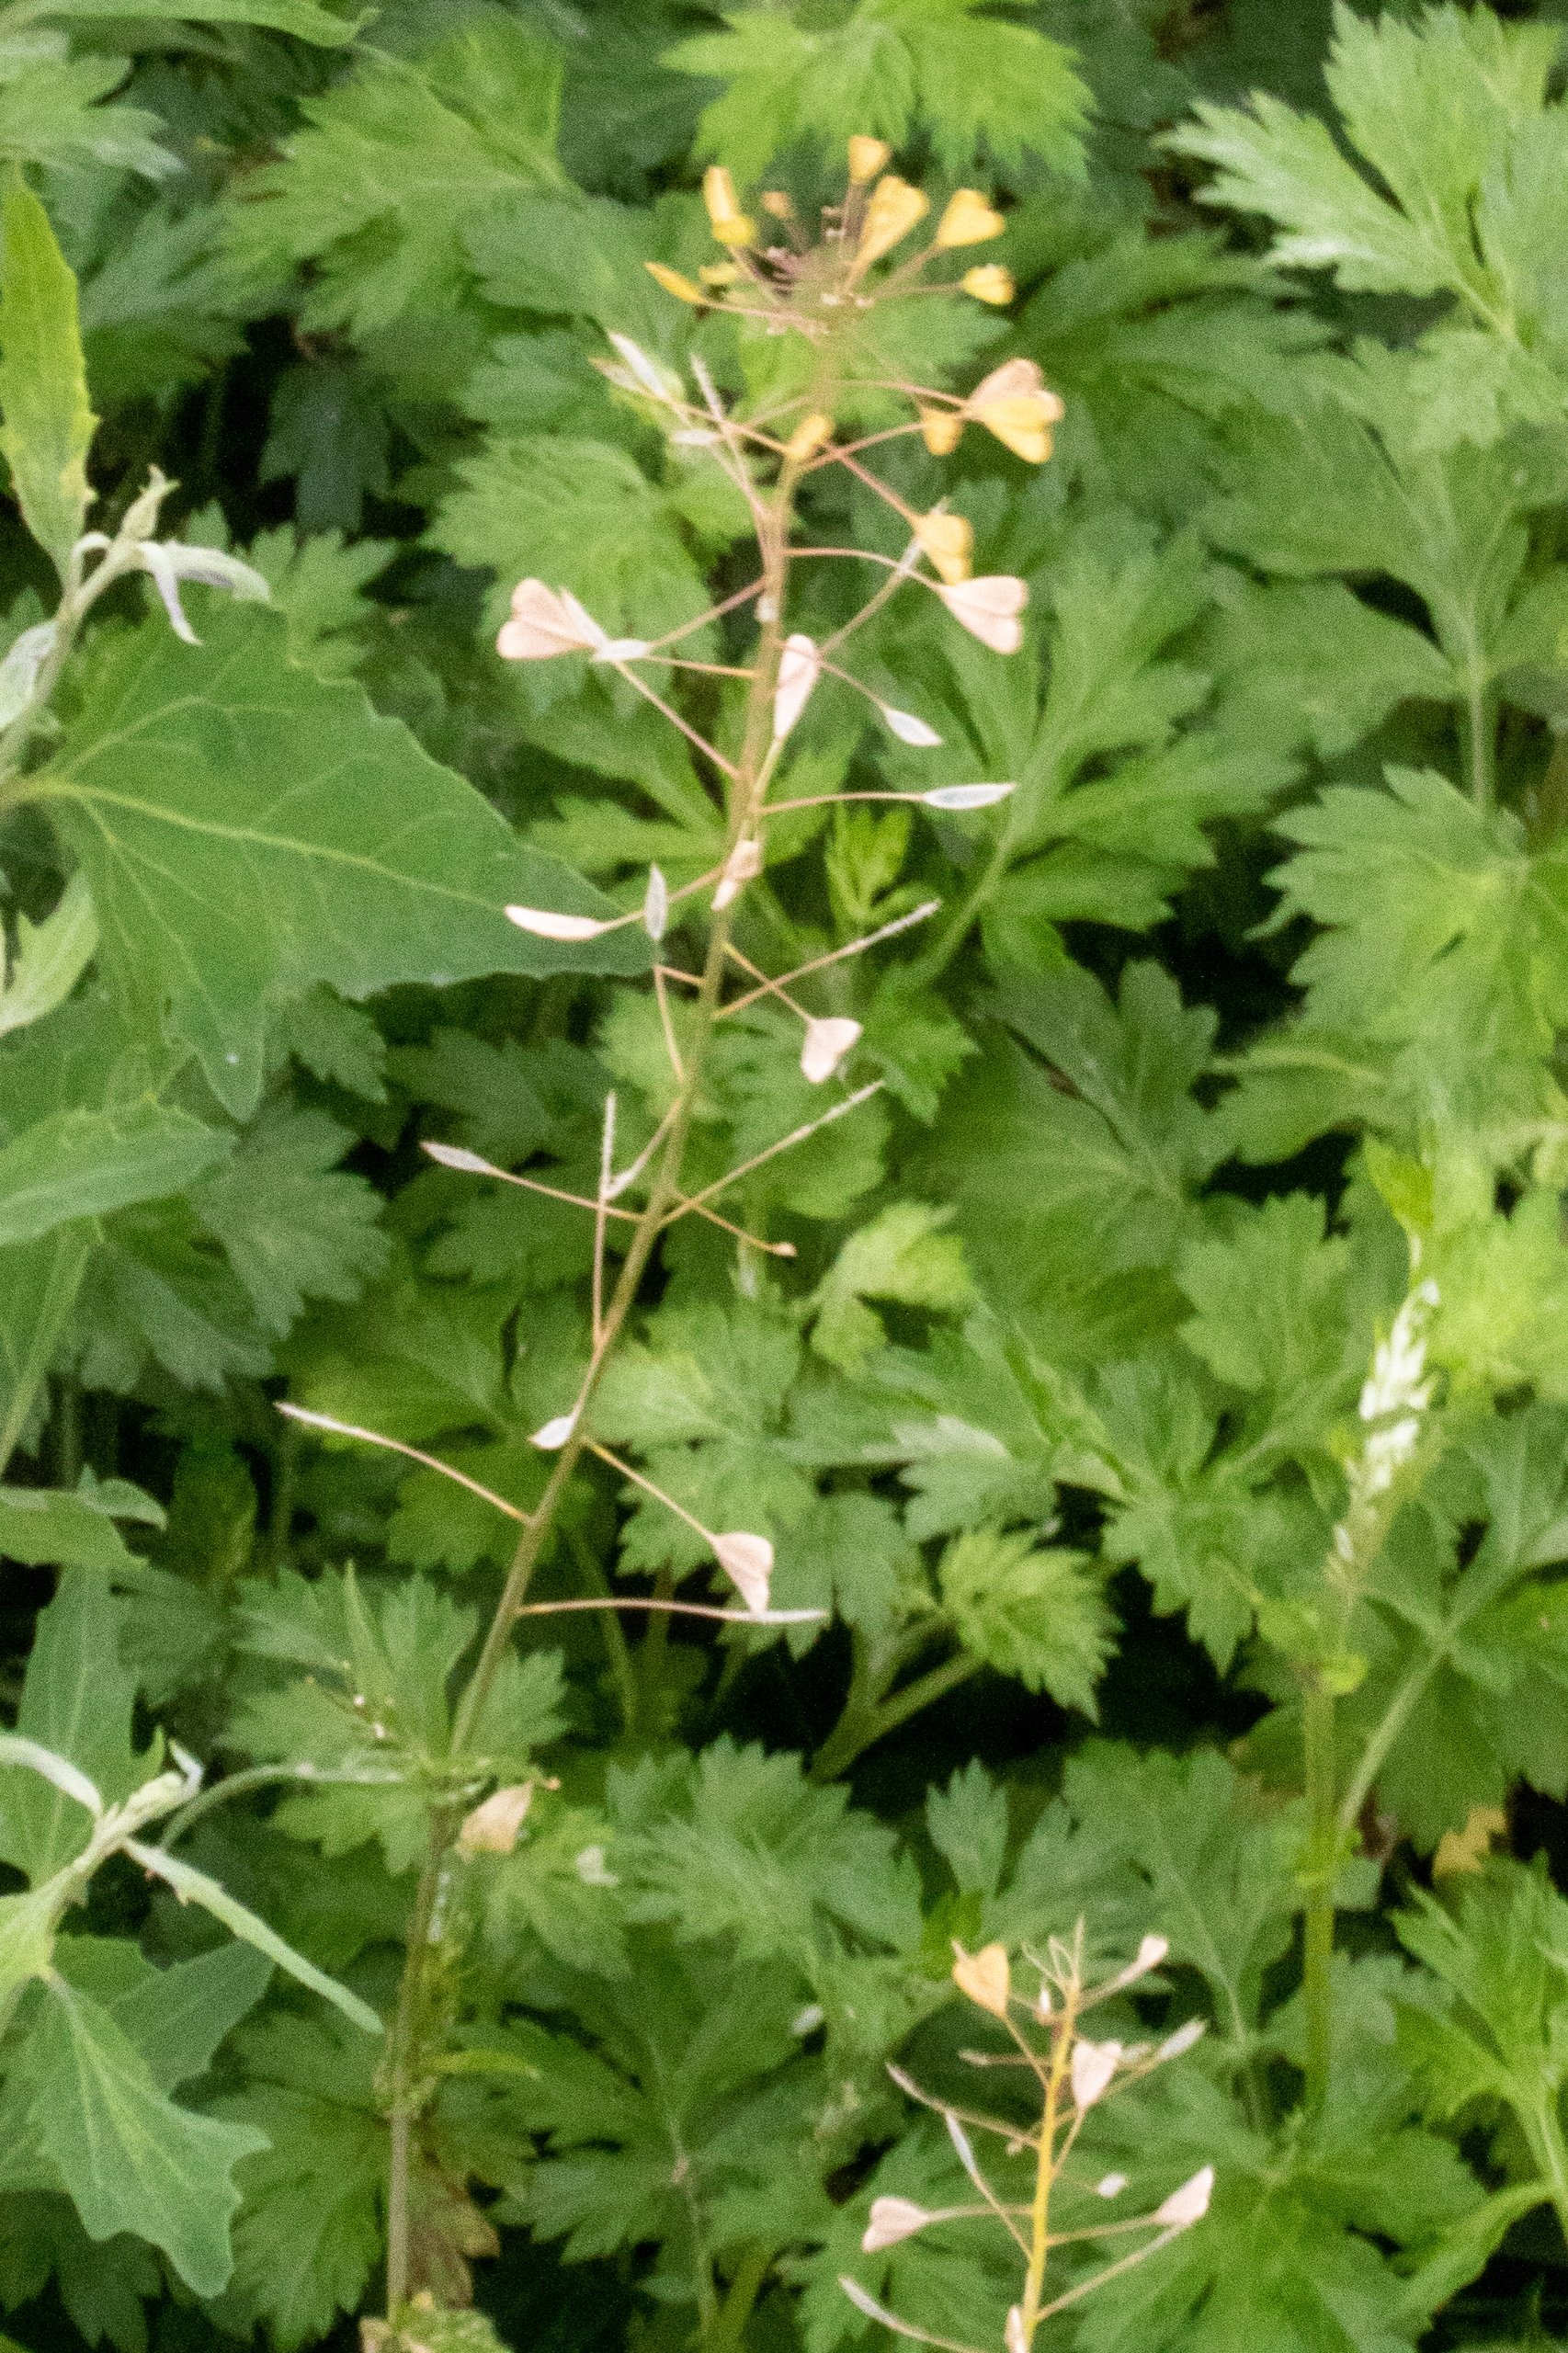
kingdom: Plantae
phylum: Tracheophyta
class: Magnoliopsida
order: Brassicales
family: Brassicaceae
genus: Capsella
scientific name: Capsella bursa-pastoris
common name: Hyrdetaske
